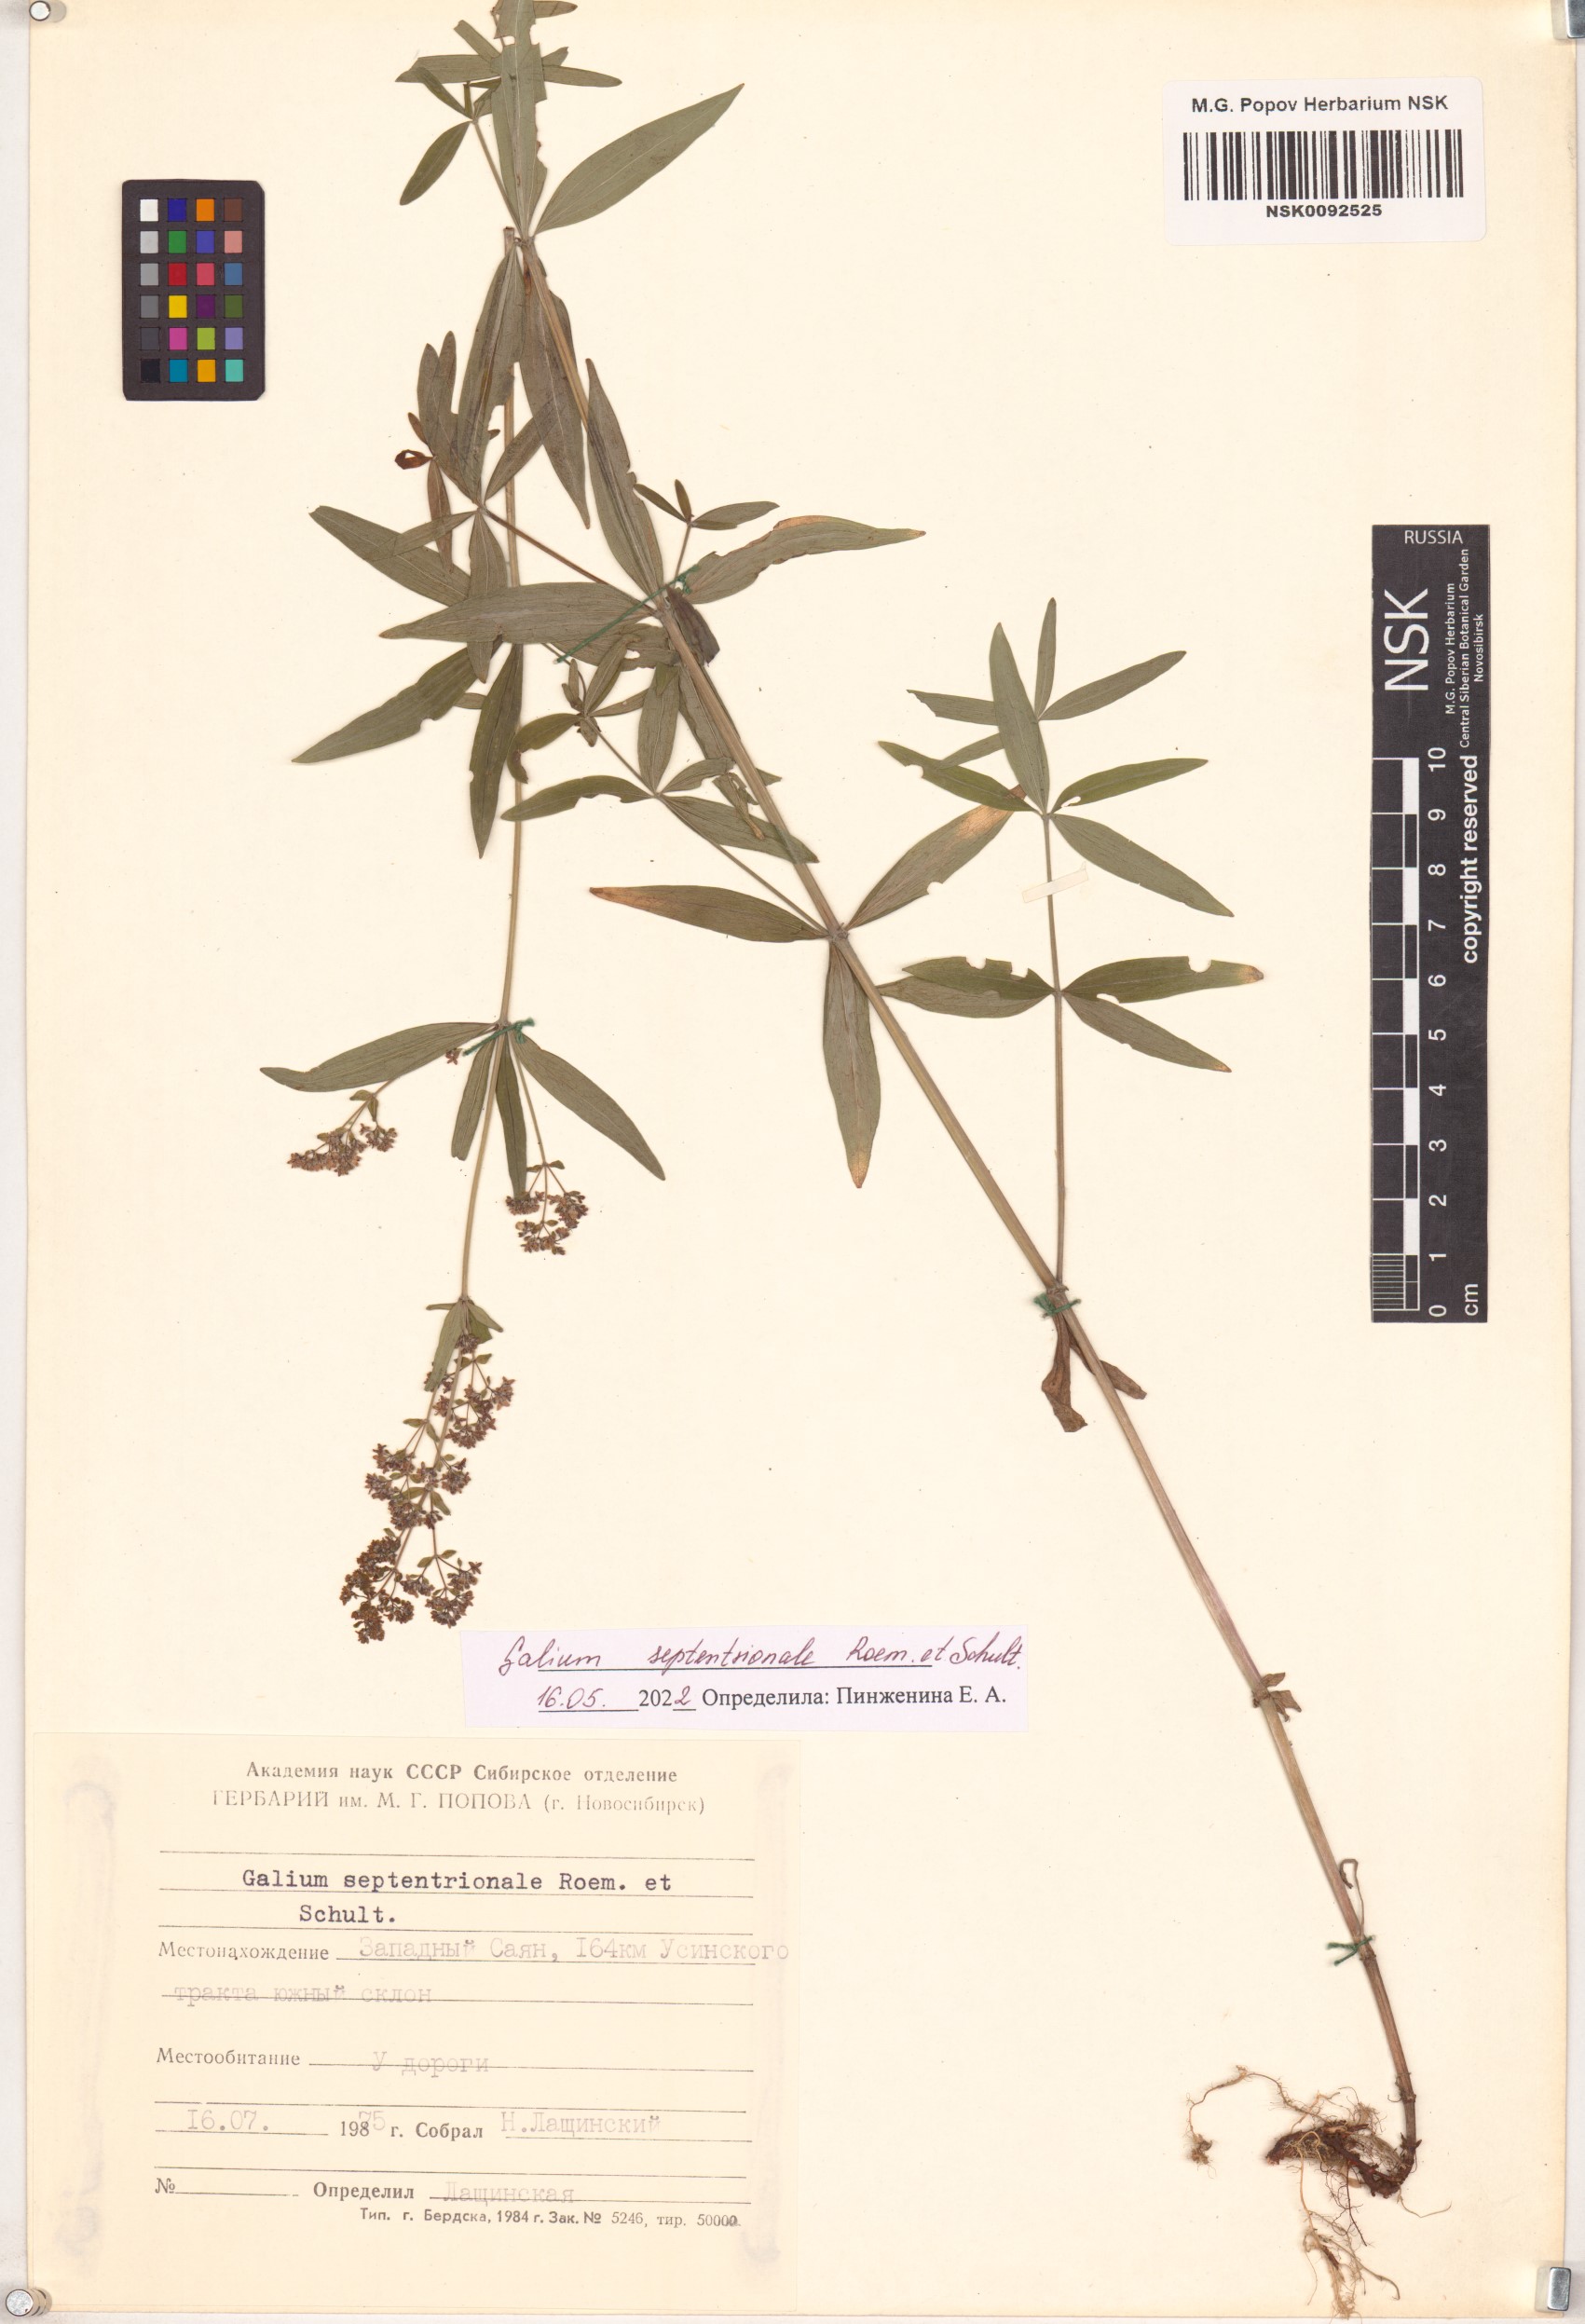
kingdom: Plantae
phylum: Tracheophyta
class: Magnoliopsida
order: Gentianales
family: Rubiaceae
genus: Galium
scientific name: Galium boreale
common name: Northern bedstraw
